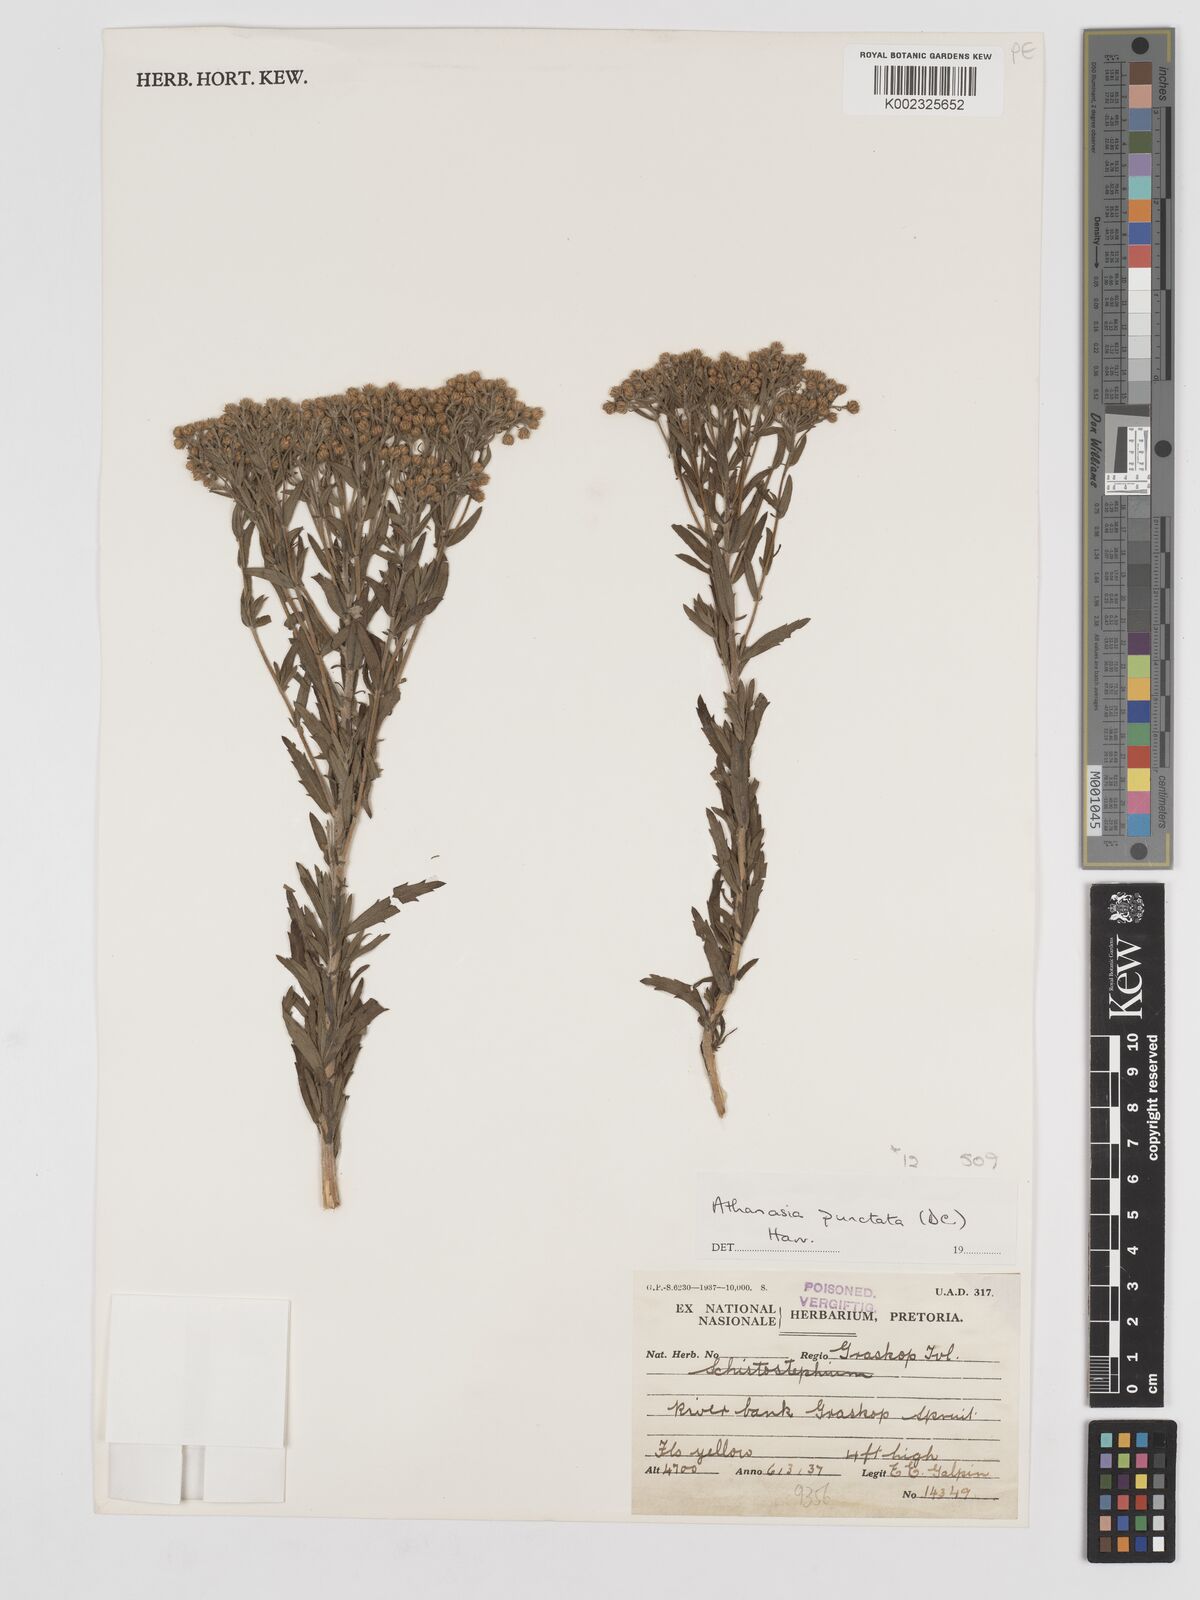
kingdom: Plantae
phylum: Tracheophyta
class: Magnoliopsida
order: Asterales
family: Asteraceae
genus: Inulanthera
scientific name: Inulanthera dregeana
